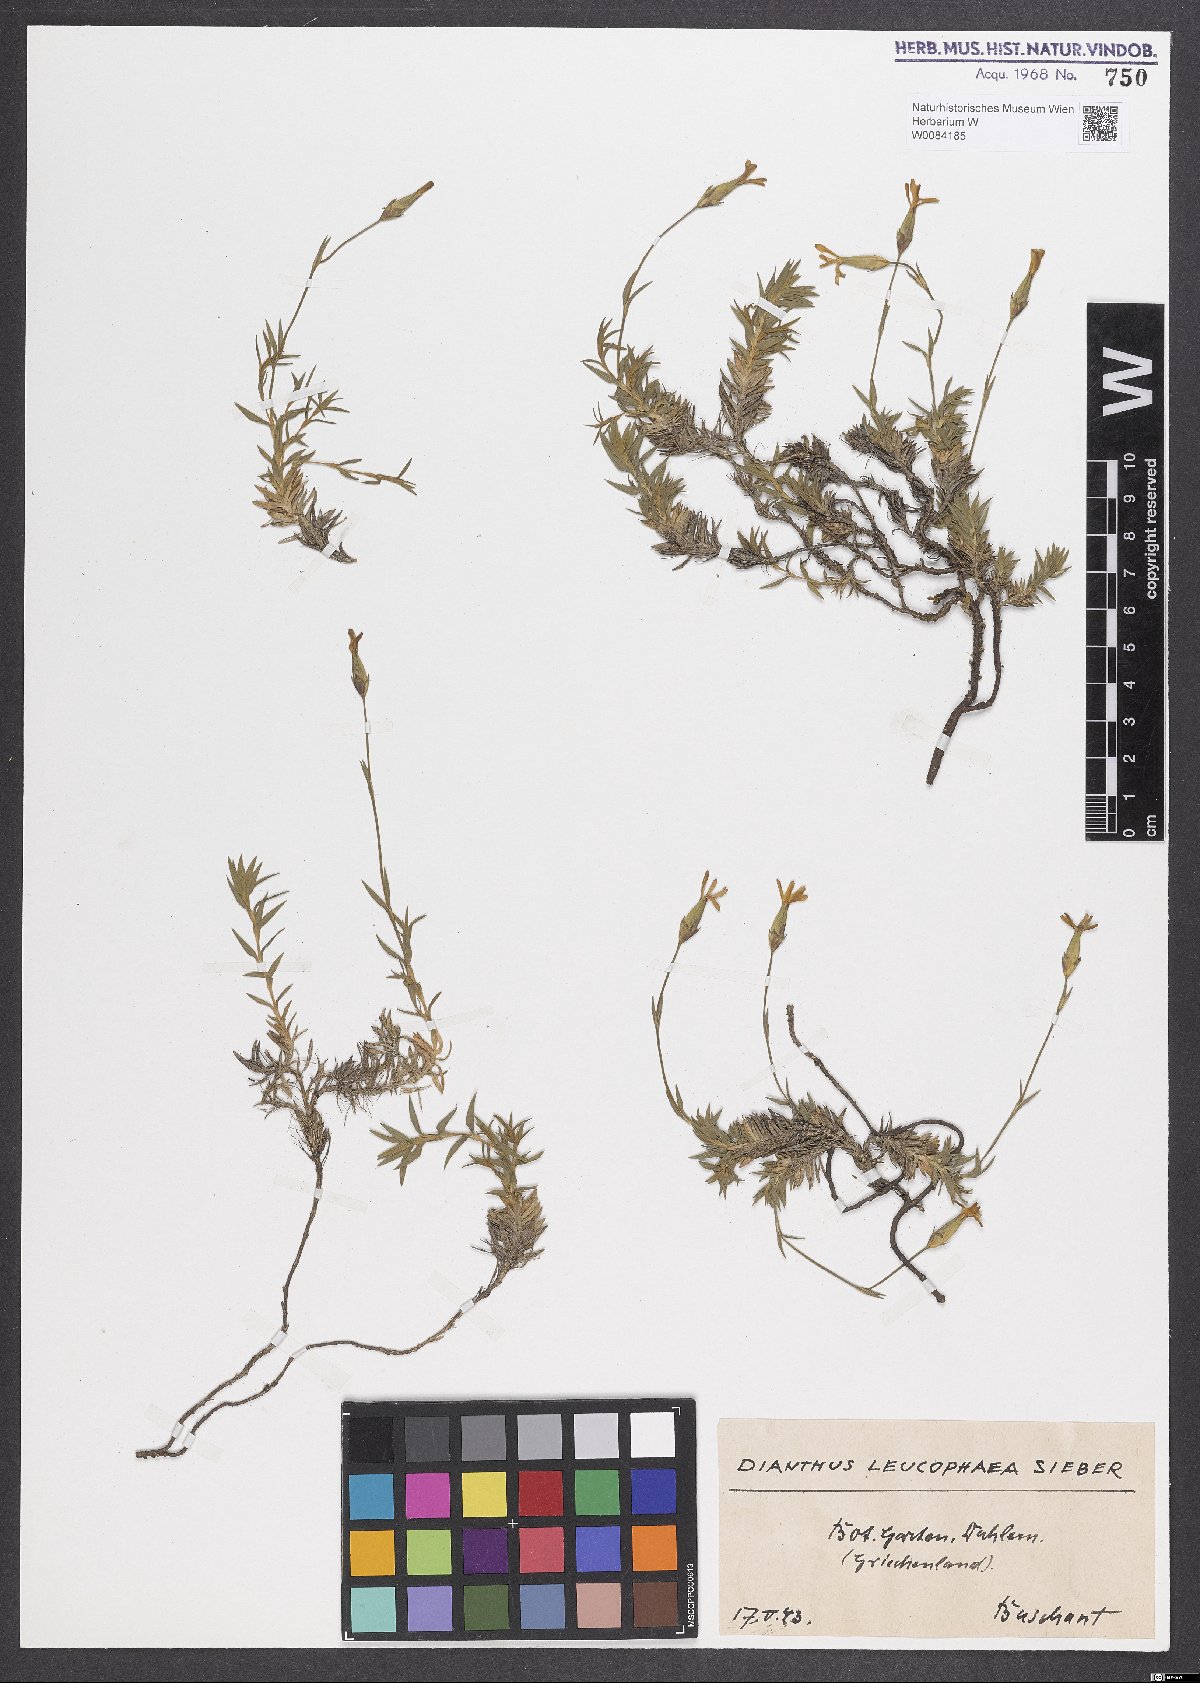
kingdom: Plantae
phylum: Tracheophyta
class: Magnoliopsida
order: Caryophyllales
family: Caryophyllaceae
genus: Dianthus
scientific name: Dianthus leucophaeus
